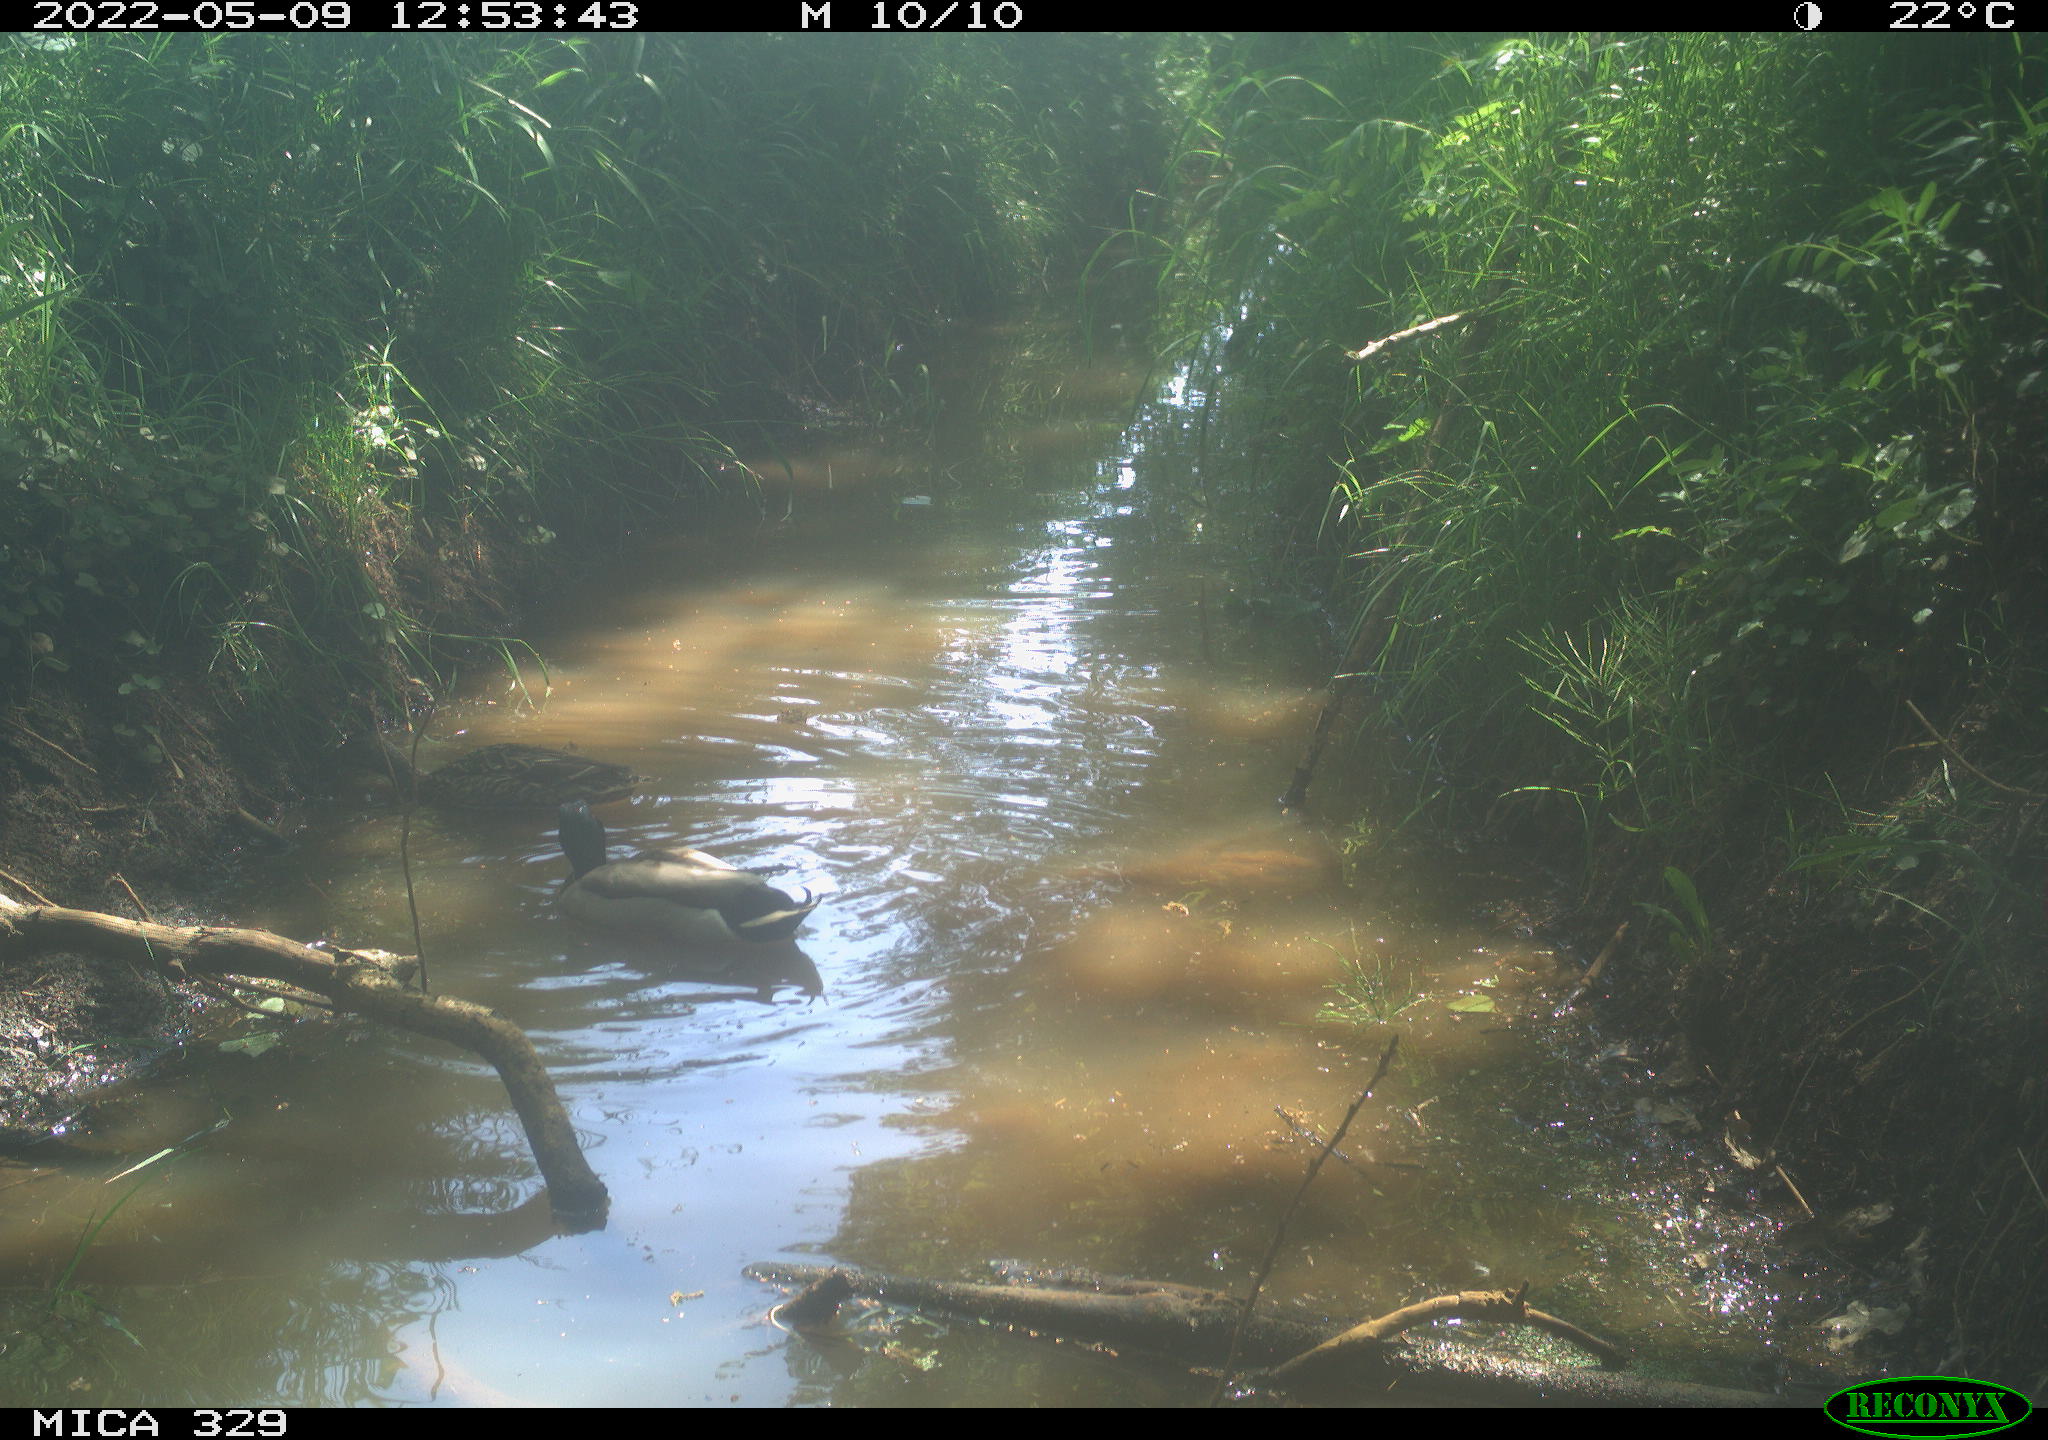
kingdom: Animalia
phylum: Chordata
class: Aves
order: Anseriformes
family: Anatidae
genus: Anas
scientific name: Anas platyrhynchos
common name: Mallard
